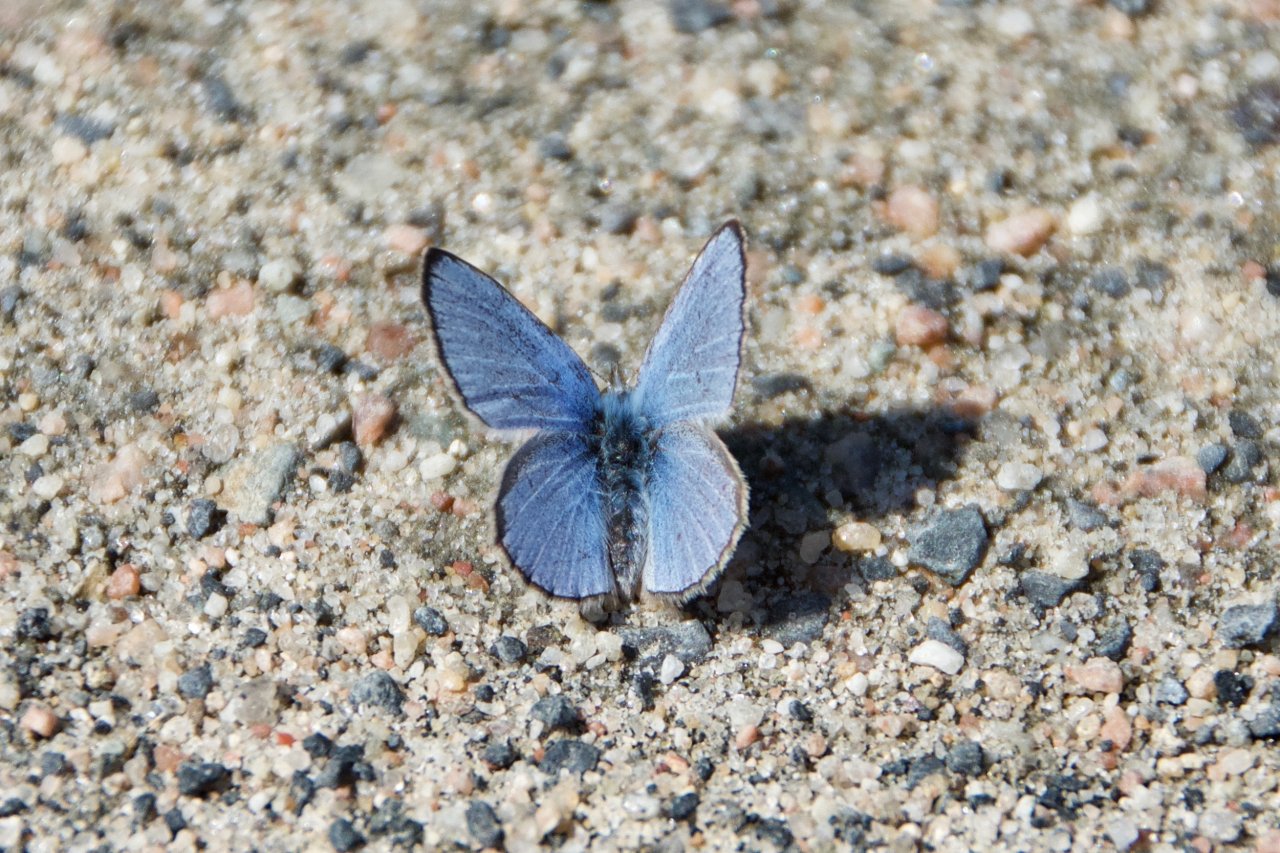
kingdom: Animalia
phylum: Arthropoda
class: Insecta
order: Lepidoptera
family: Lycaenidae
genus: Celastrina
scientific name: Celastrina lucia
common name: Northern Spring Azure
